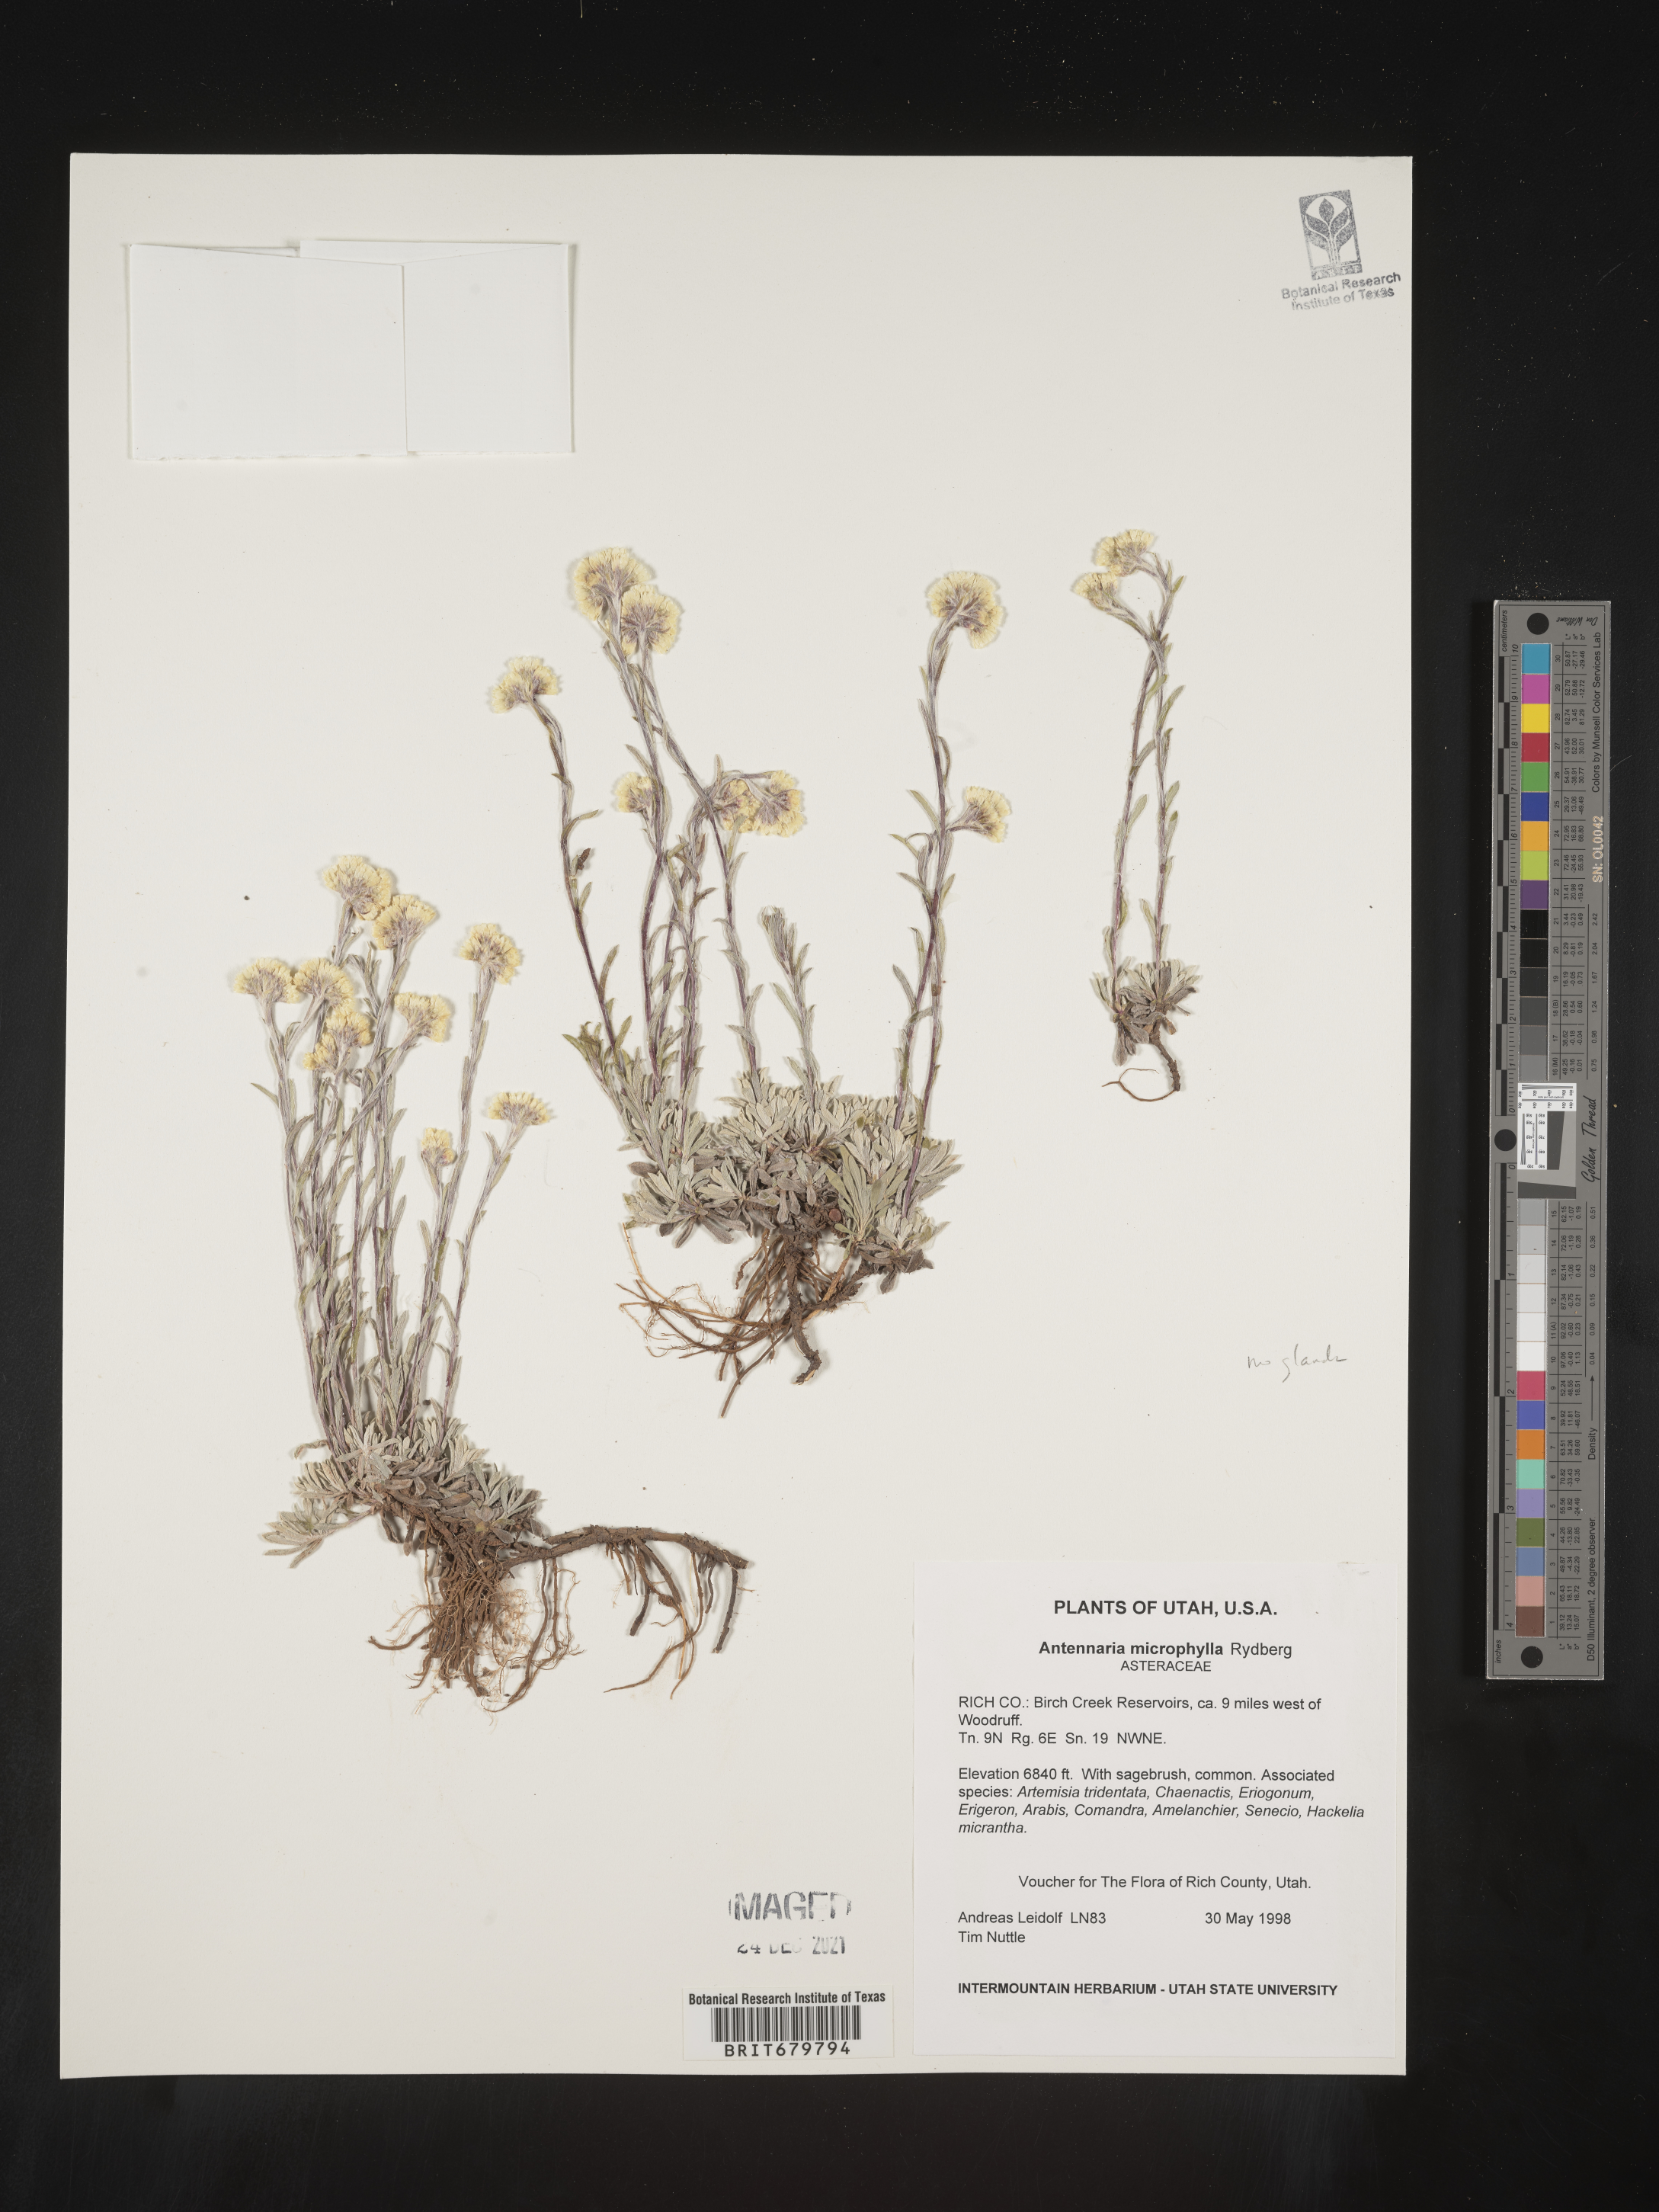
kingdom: Plantae
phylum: Tracheophyta
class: Magnoliopsida
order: Asterales
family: Asteraceae
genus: Antennaria
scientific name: Antennaria microphylla
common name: Littleleaf pussytoes
